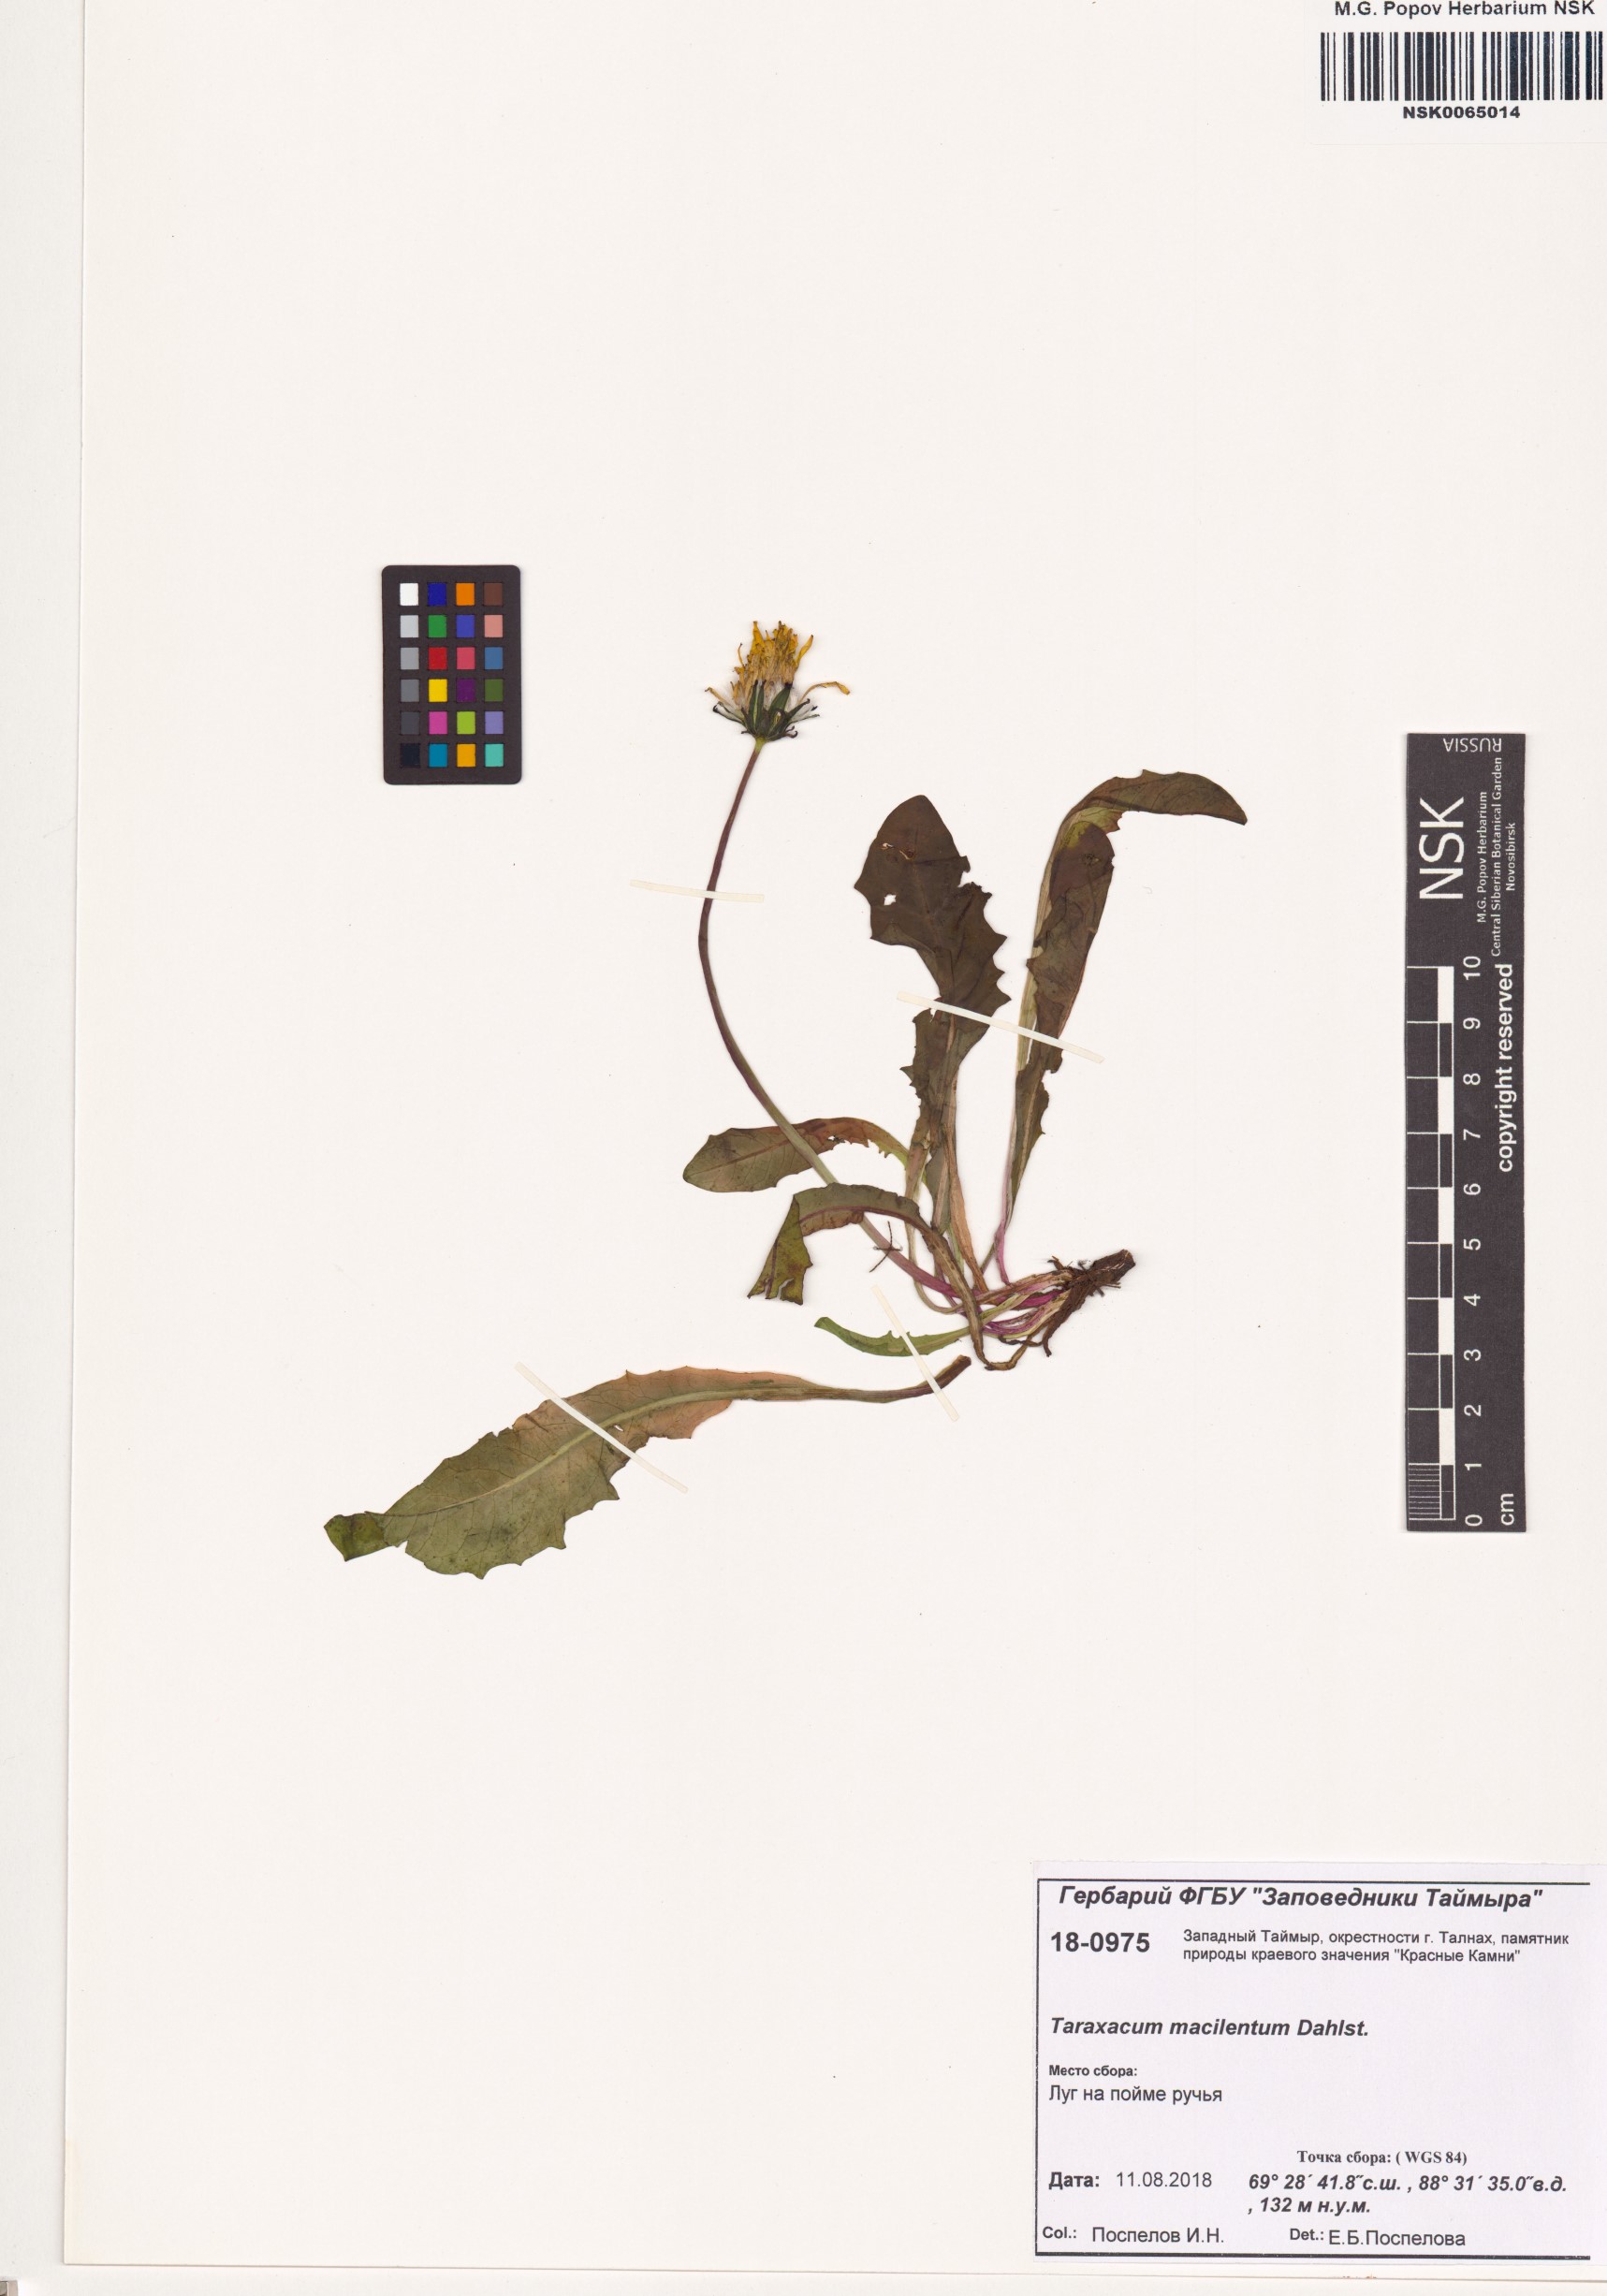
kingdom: Plantae
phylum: Tracheophyta
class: Magnoliopsida
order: Asterales
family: Asteraceae
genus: Taraxacum
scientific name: Taraxacum macilentum
